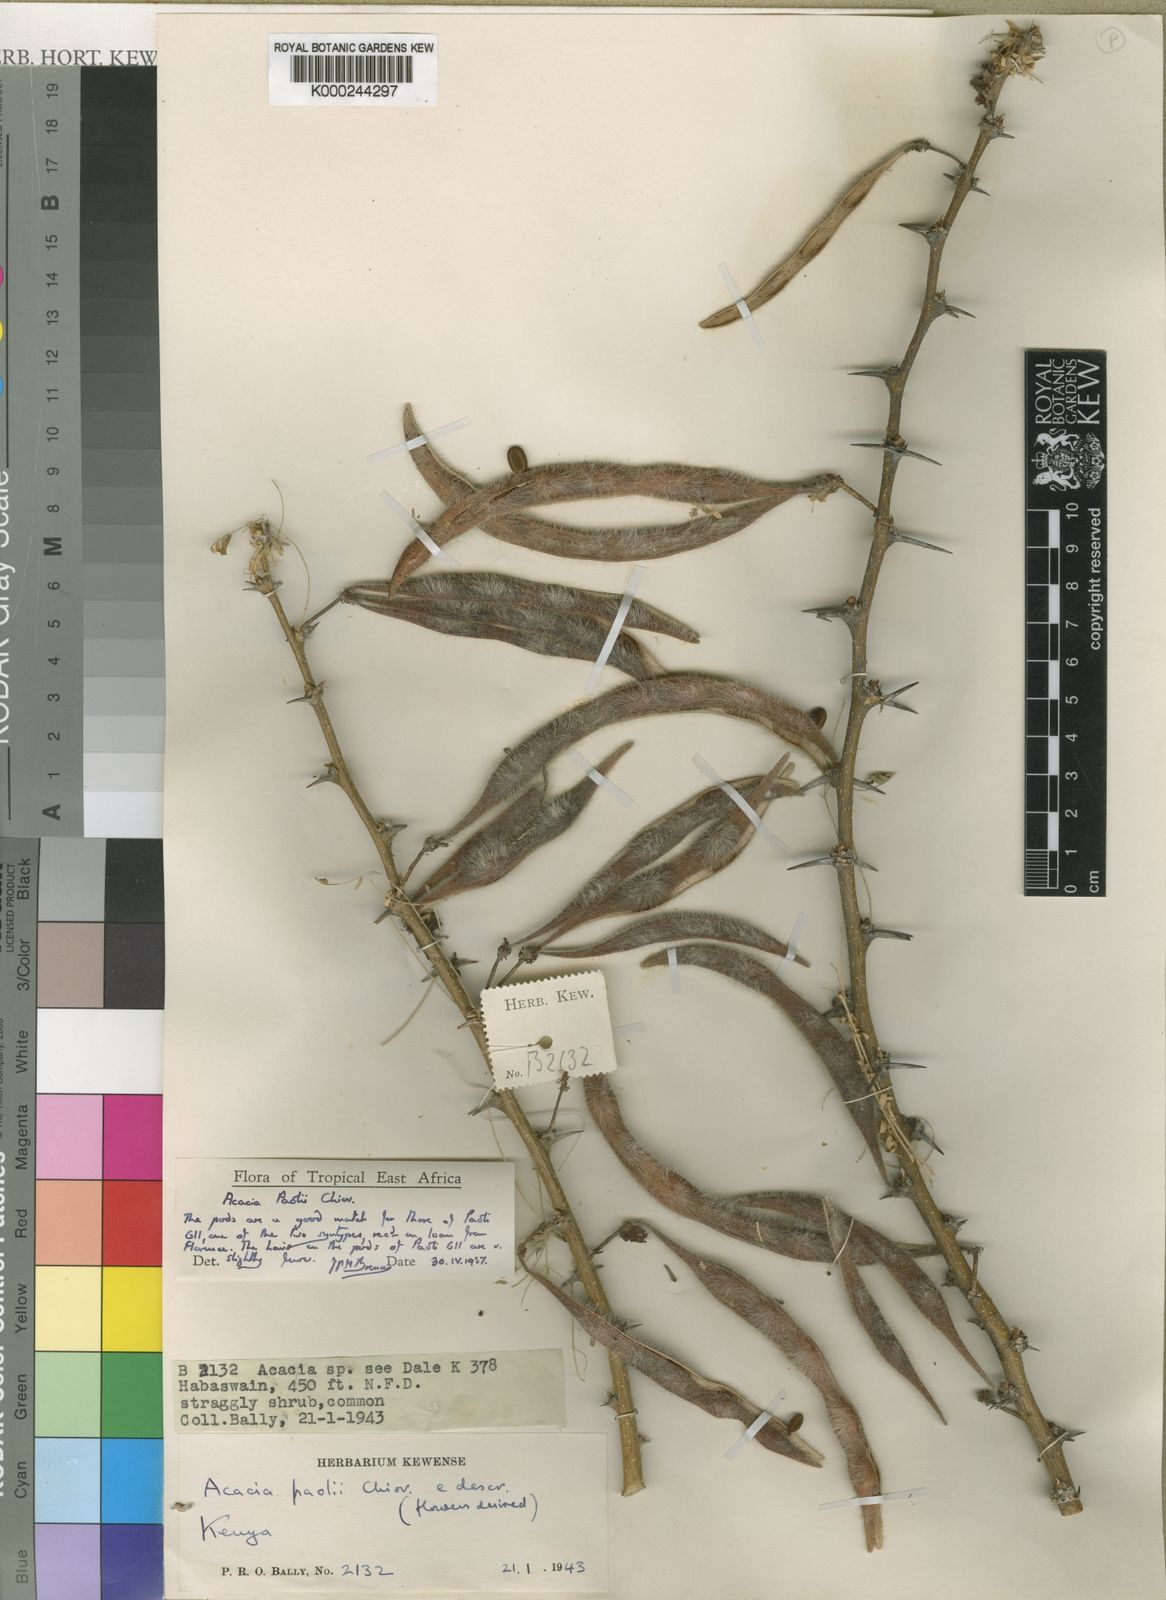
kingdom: Plantae
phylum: Tracheophyta
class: Magnoliopsida
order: Fabales
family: Fabaceae
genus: Vachellia
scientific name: Vachellia paolii
